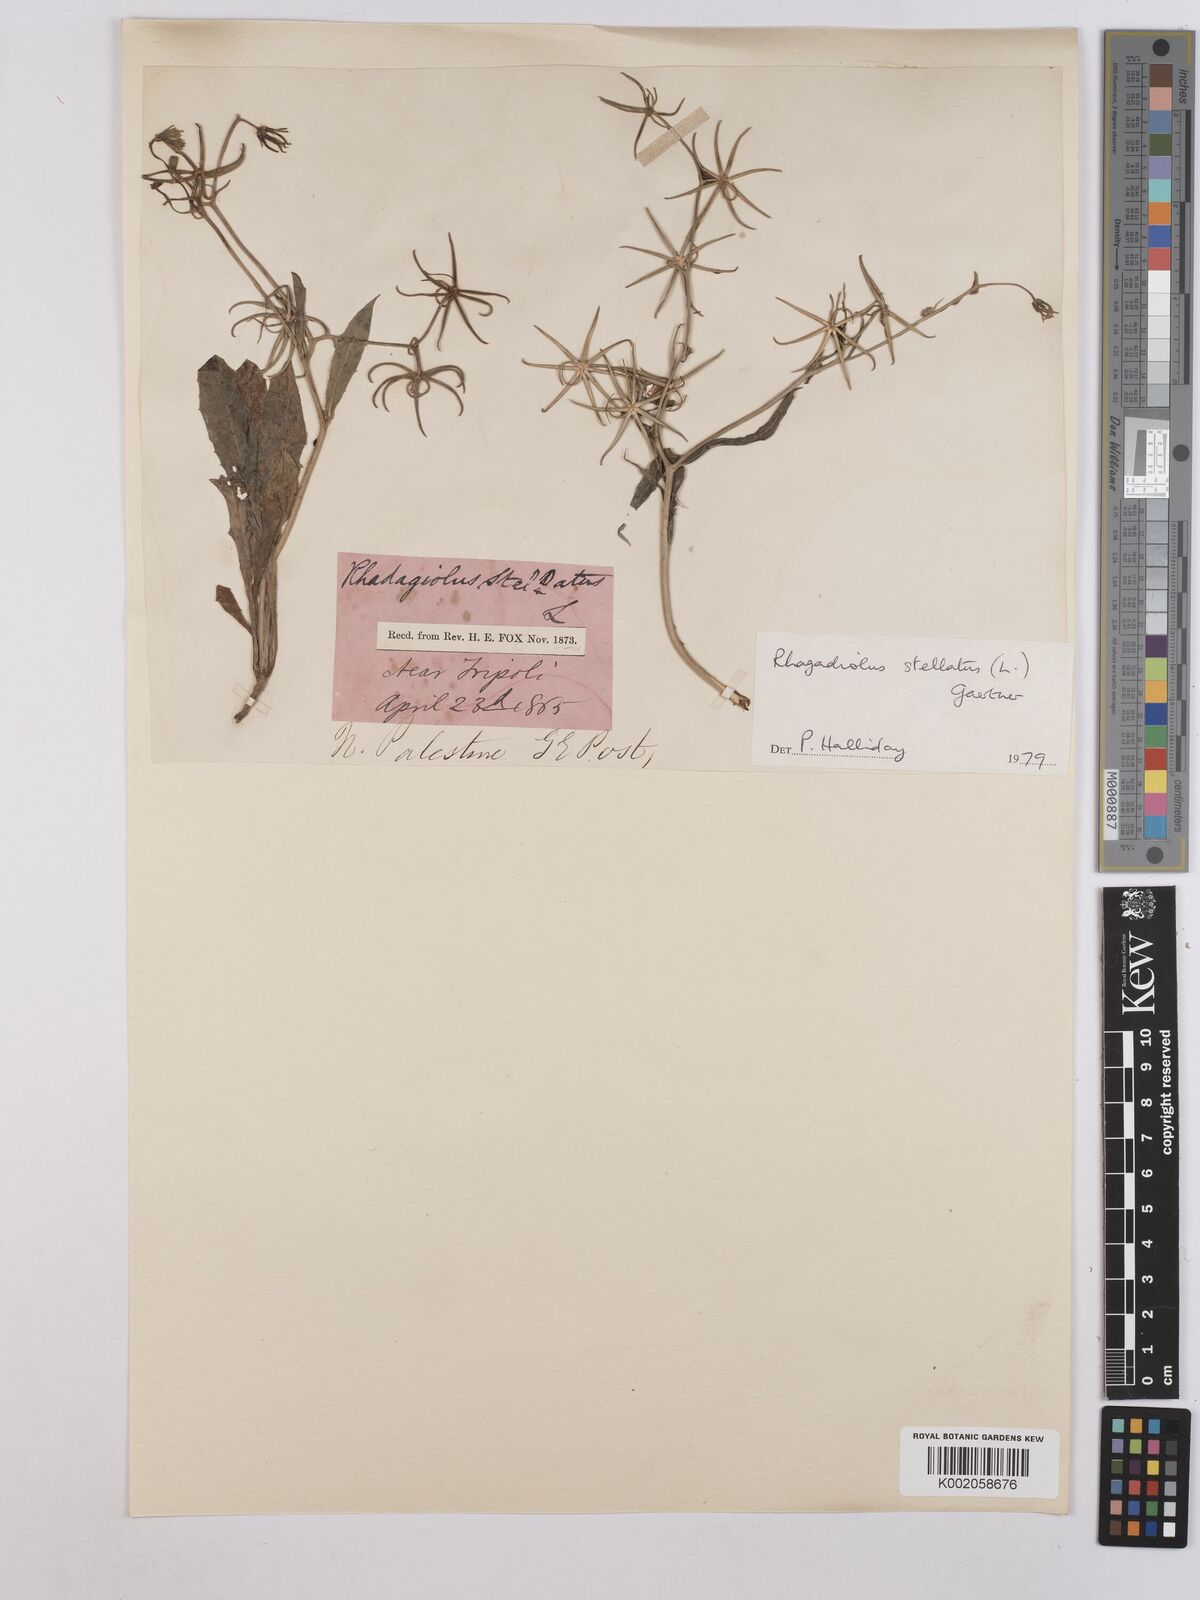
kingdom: Plantae
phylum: Tracheophyta
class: Magnoliopsida
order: Asterales
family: Asteraceae
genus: Rhagadiolus
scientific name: Rhagadiolus stellatus
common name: Star hawkbit
